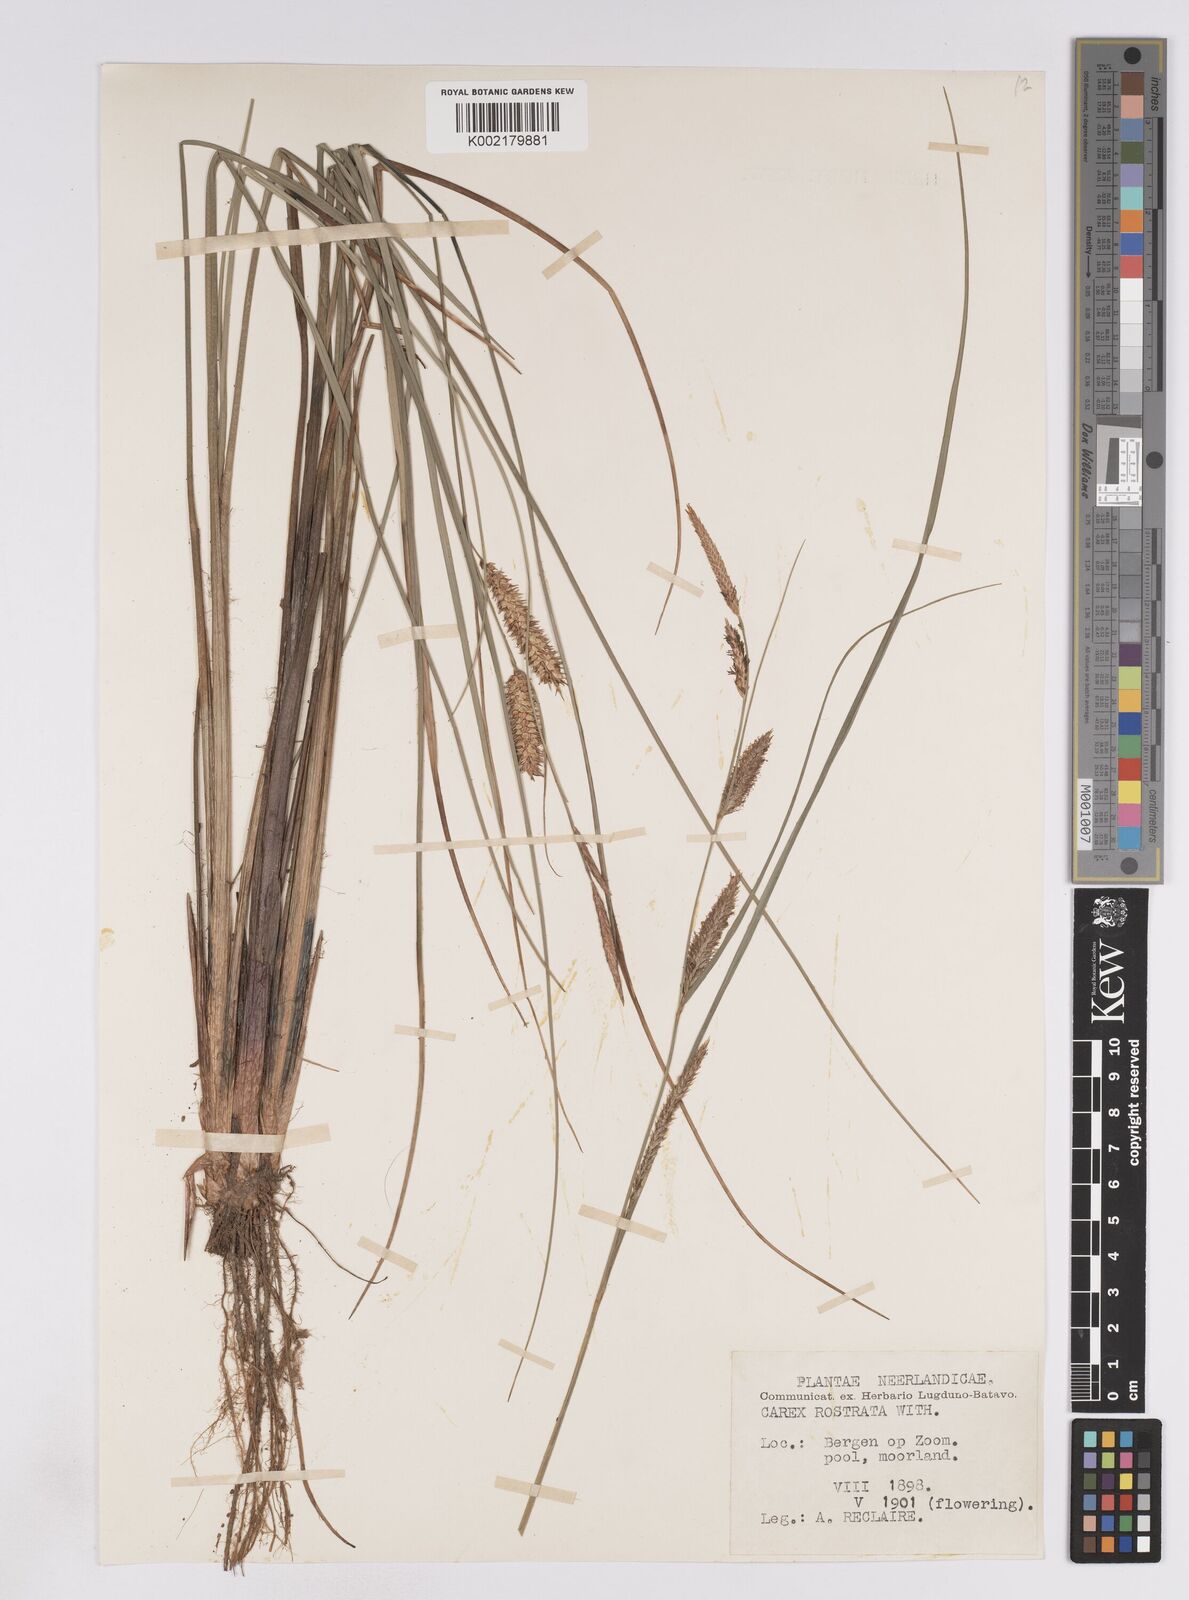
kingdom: Plantae
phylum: Tracheophyta
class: Liliopsida
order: Poales
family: Cyperaceae
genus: Carex
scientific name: Carex rostrata
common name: Bottle sedge
